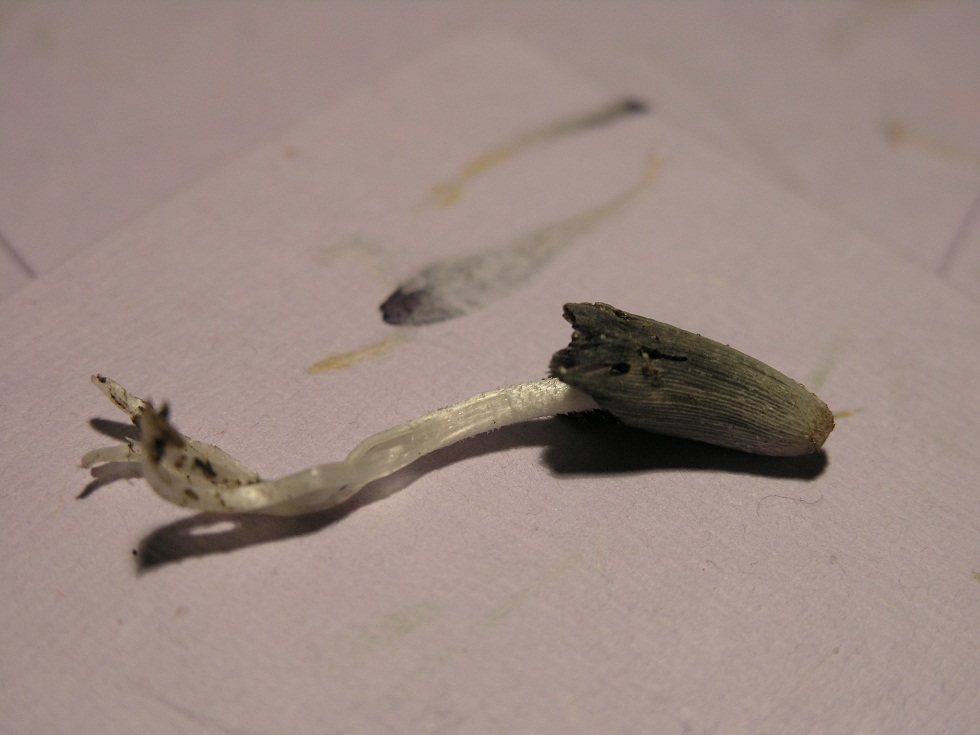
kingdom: Fungi
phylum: Basidiomycota
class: Agaricomycetes
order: Agaricales
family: Psathyrellaceae
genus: Coprinopsis
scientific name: Coprinopsis lagopus
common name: dunstokket blækhat
